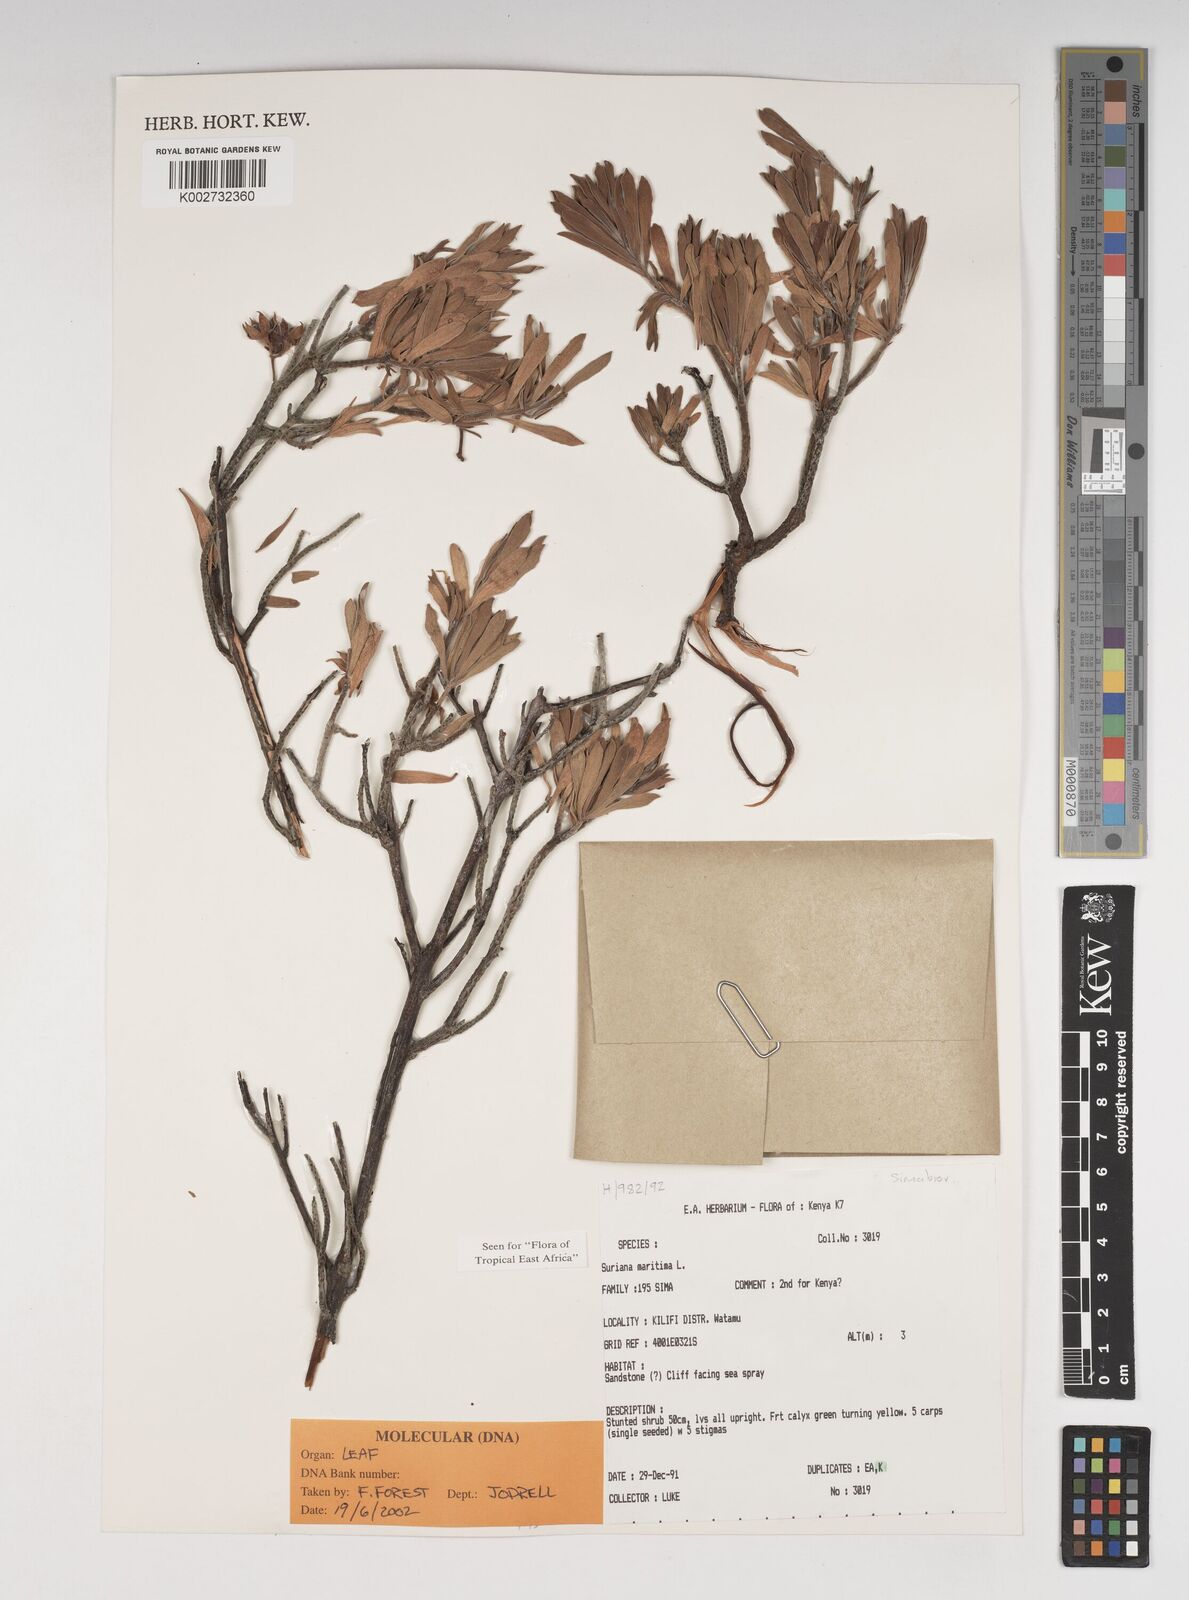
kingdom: Plantae
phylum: Tracheophyta
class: Magnoliopsida
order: Fabales
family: Surianaceae
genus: Suriana
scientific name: Suriana maritima
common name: Bay-cedar
